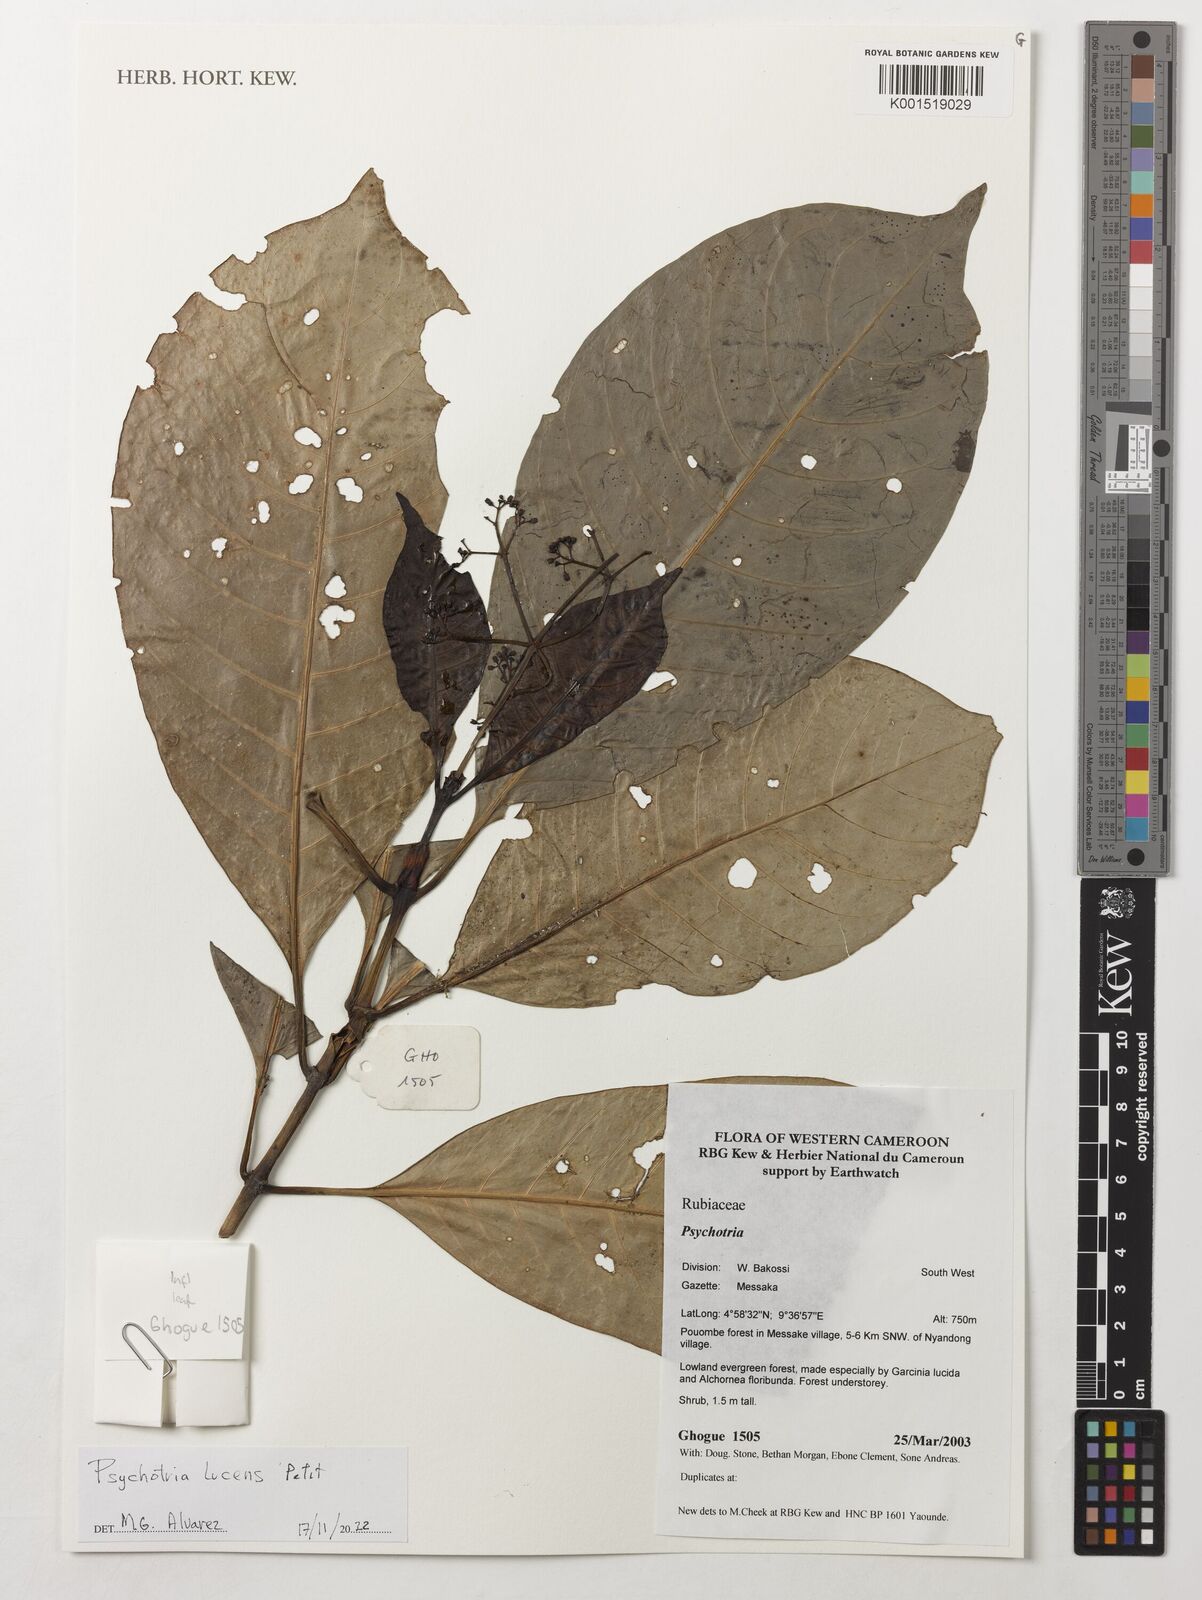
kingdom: Plantae
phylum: Tracheophyta
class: Magnoliopsida
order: Gentianales
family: Rubiaceae
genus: Psychotria
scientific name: Psychotria lucens
